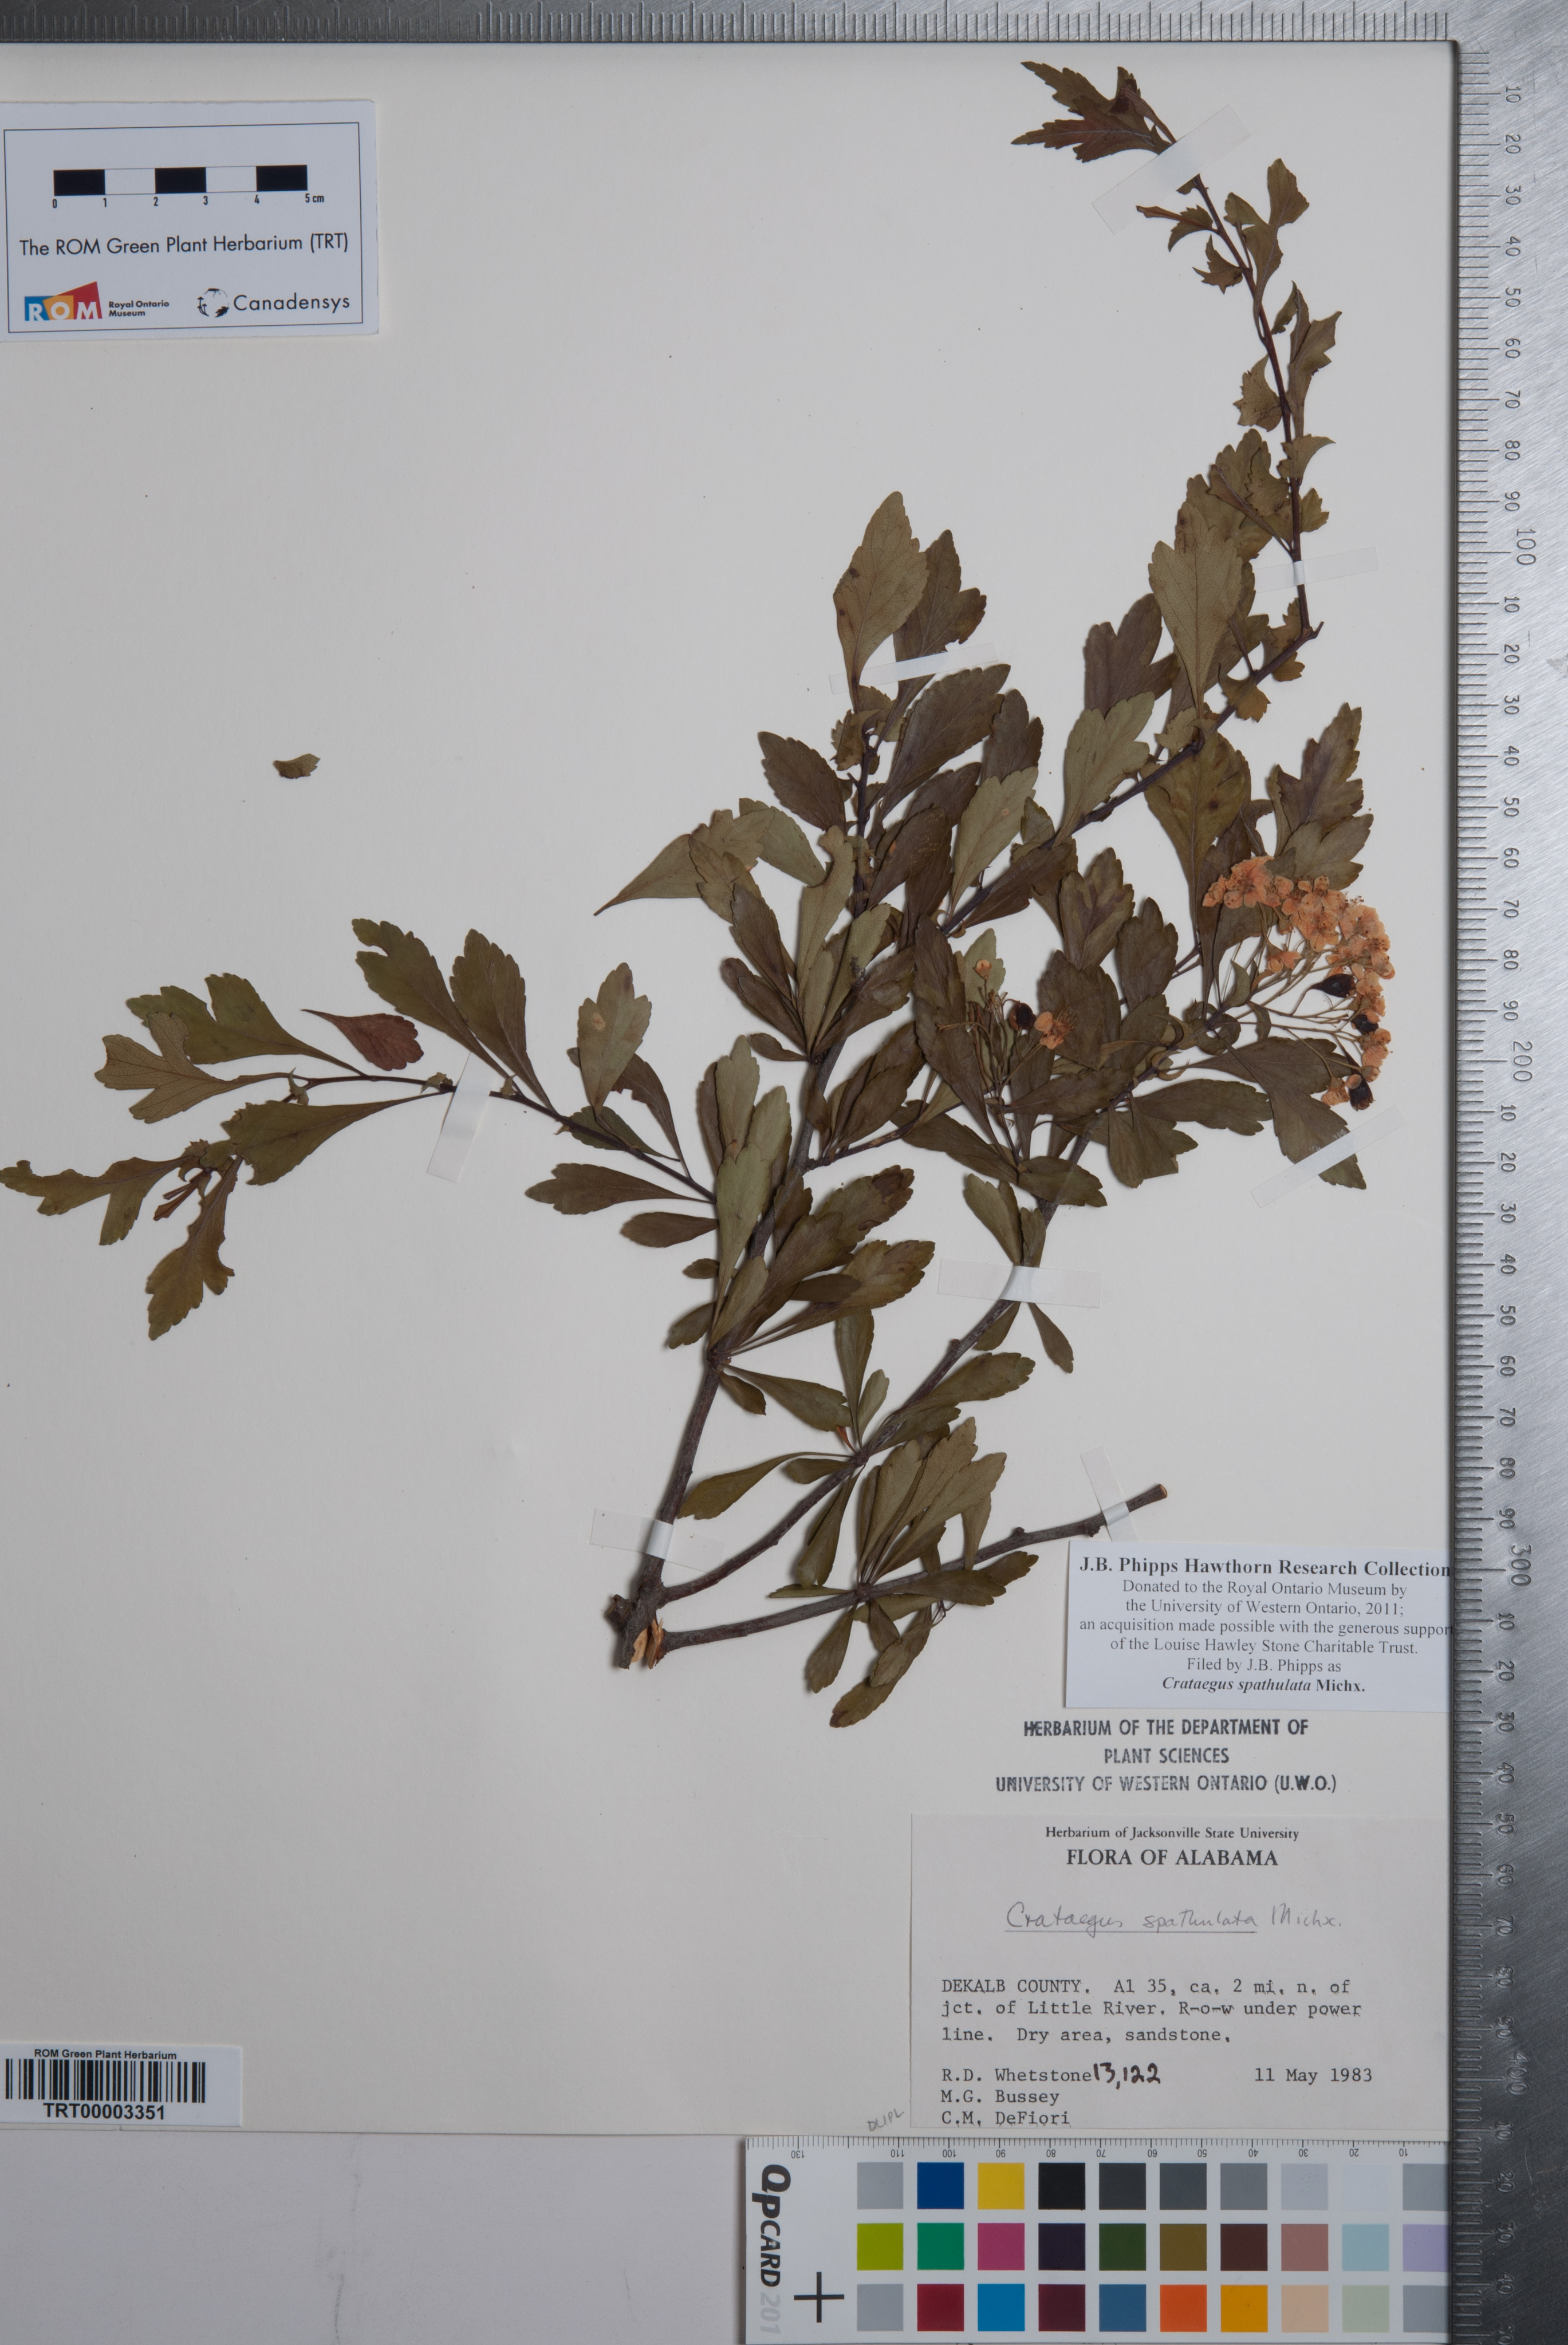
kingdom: Plantae
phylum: Tracheophyta
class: Magnoliopsida
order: Rosales
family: Rosaceae
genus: Crataegus
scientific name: Crataegus spathulata
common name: Littlehip hawthorn
